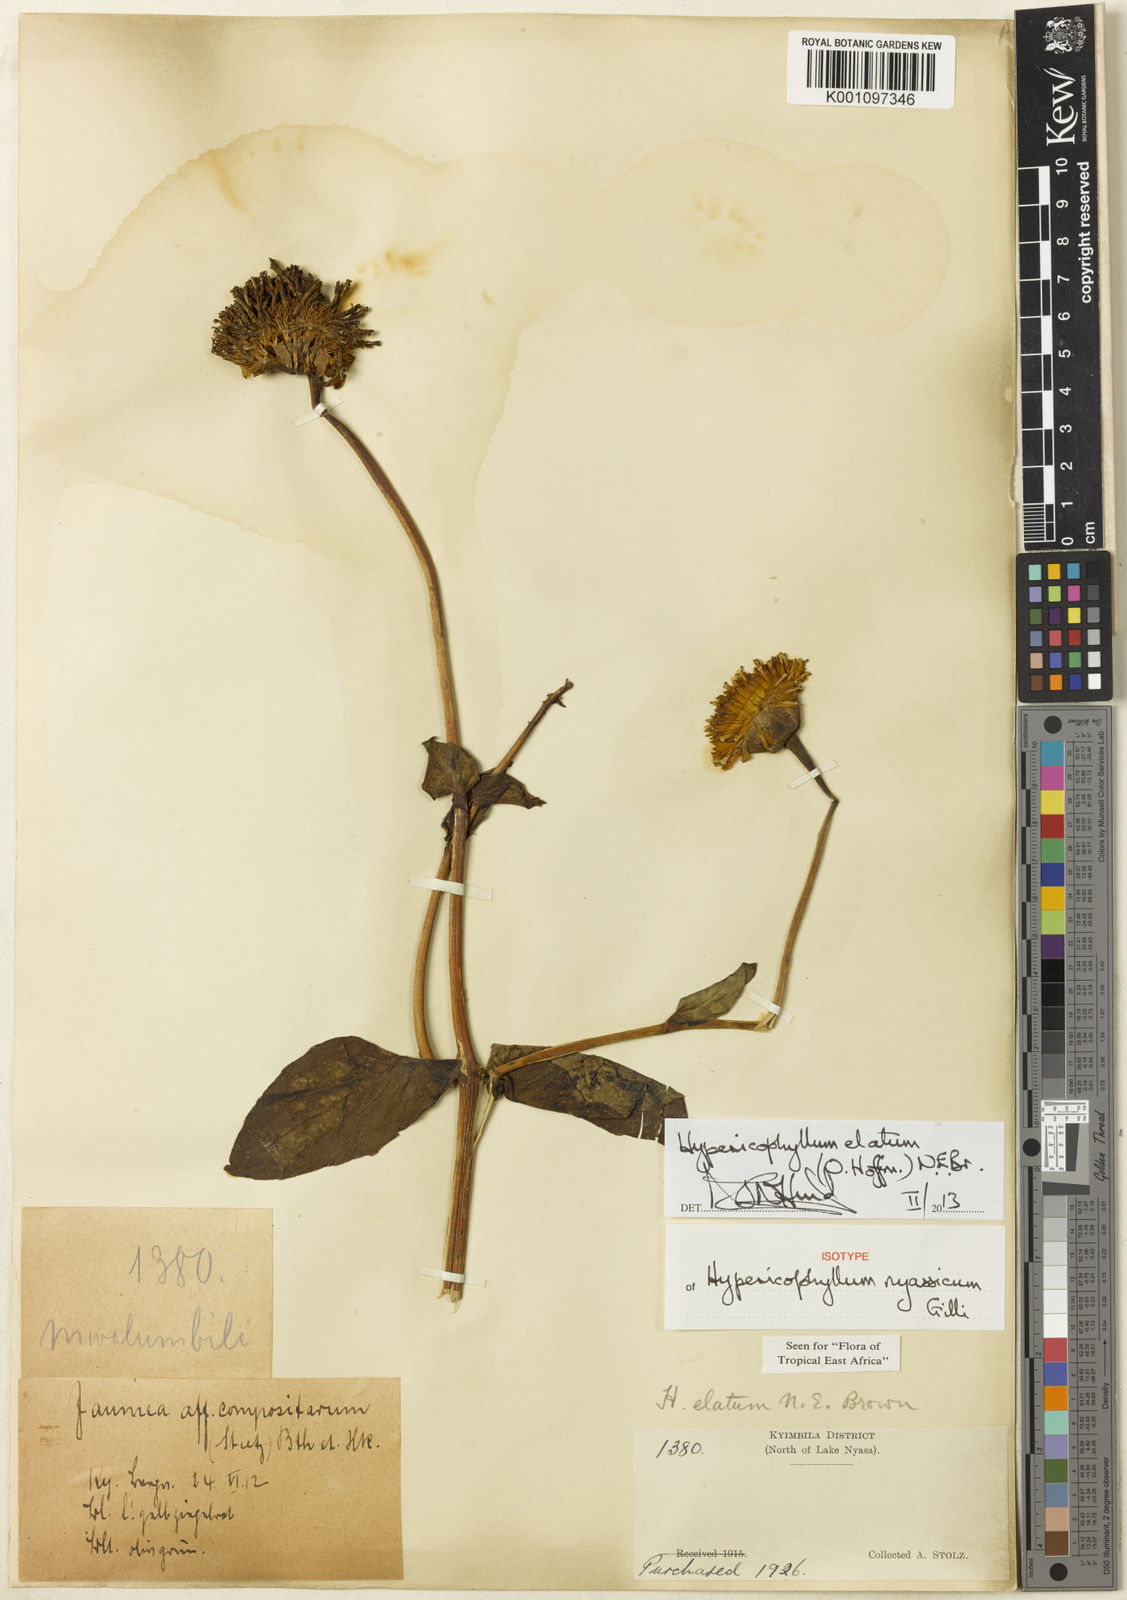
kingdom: Plantae
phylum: Tracheophyta
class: Magnoliopsida
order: Asterales
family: Asteraceae
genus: Hypericophyllum
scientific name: Hypericophyllum elatum
